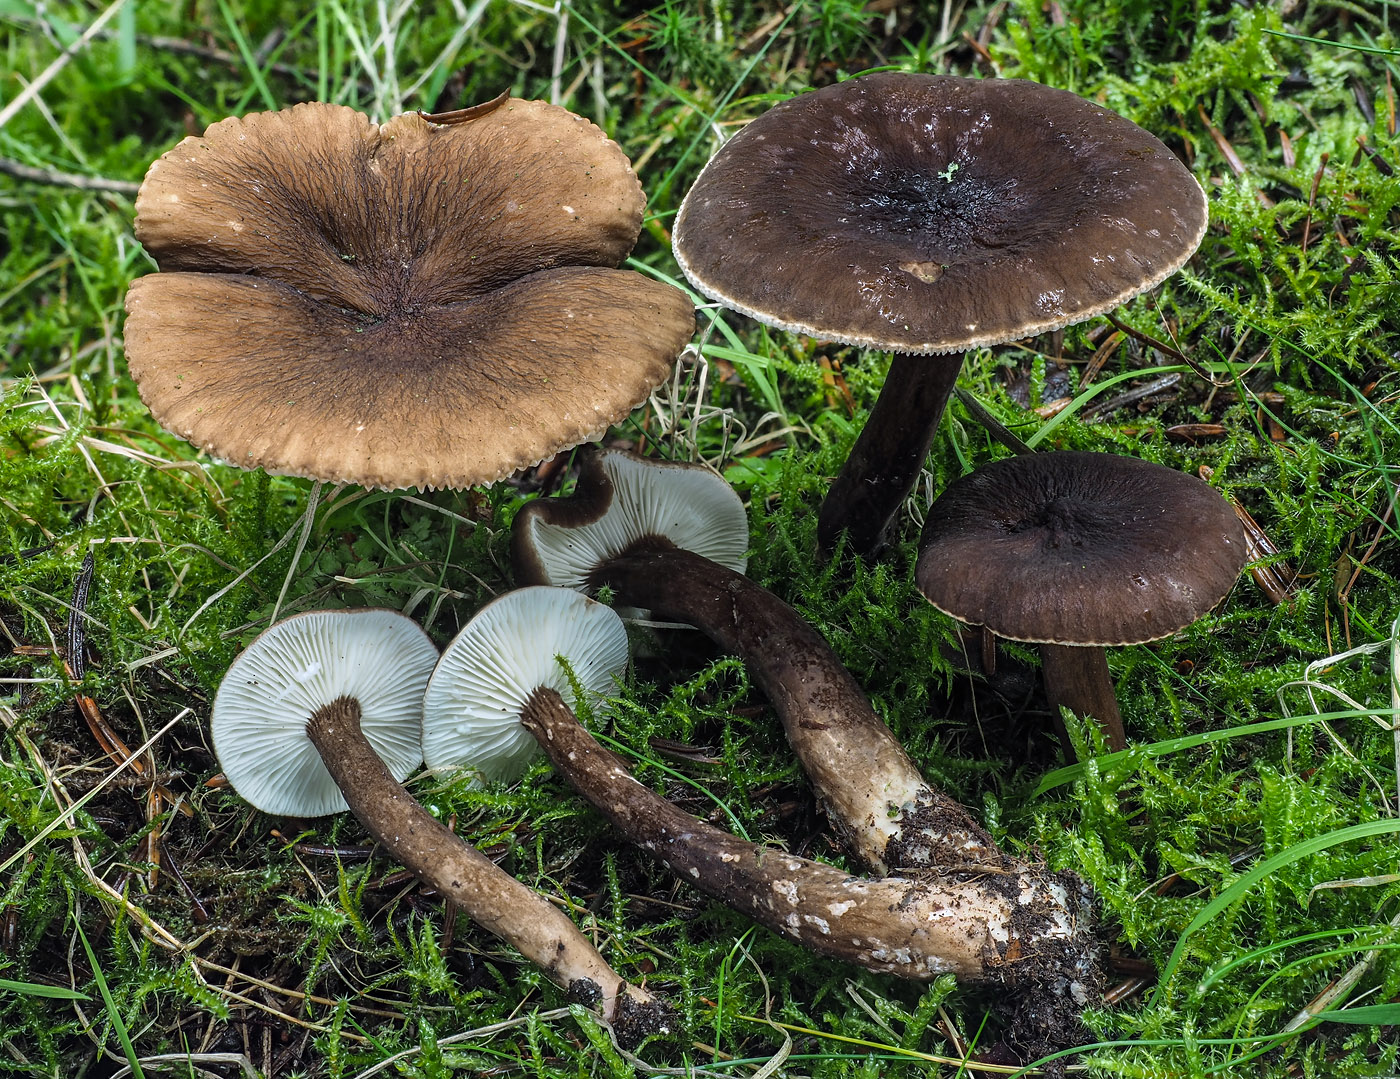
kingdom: Fungi
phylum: Basidiomycota
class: Agaricomycetes
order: Russulales
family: Russulaceae
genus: Lactarius
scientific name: Lactarius lignyotus
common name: fløjls-mælkehat
